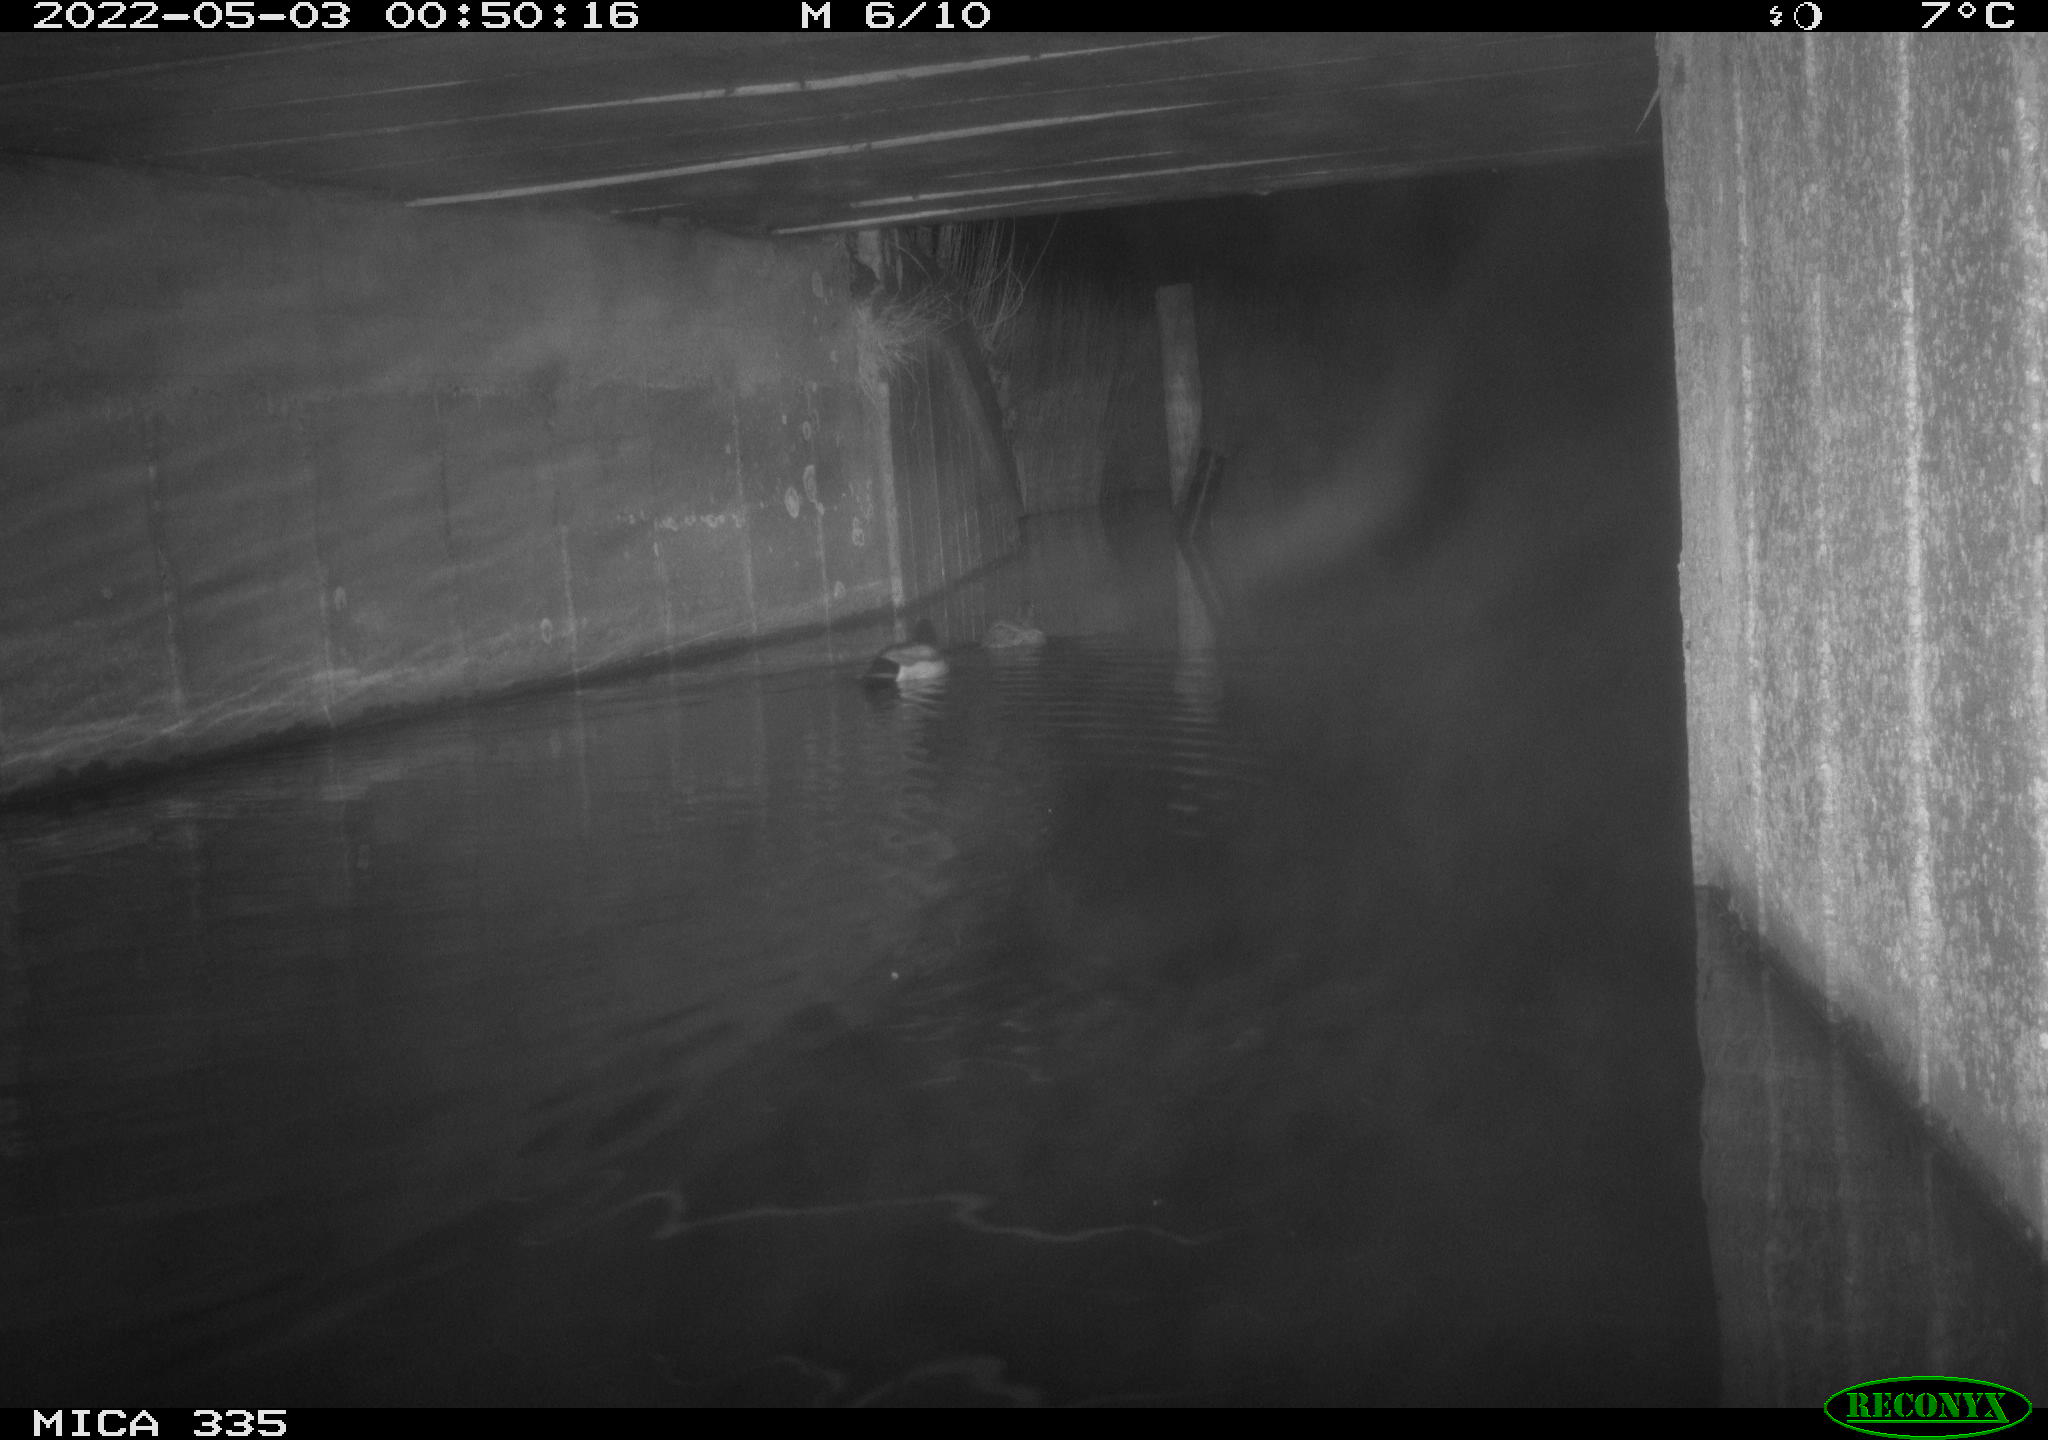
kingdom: Animalia
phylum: Chordata
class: Aves
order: Anseriformes
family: Anatidae
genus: Anas
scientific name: Anas platyrhynchos
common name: Mallard
